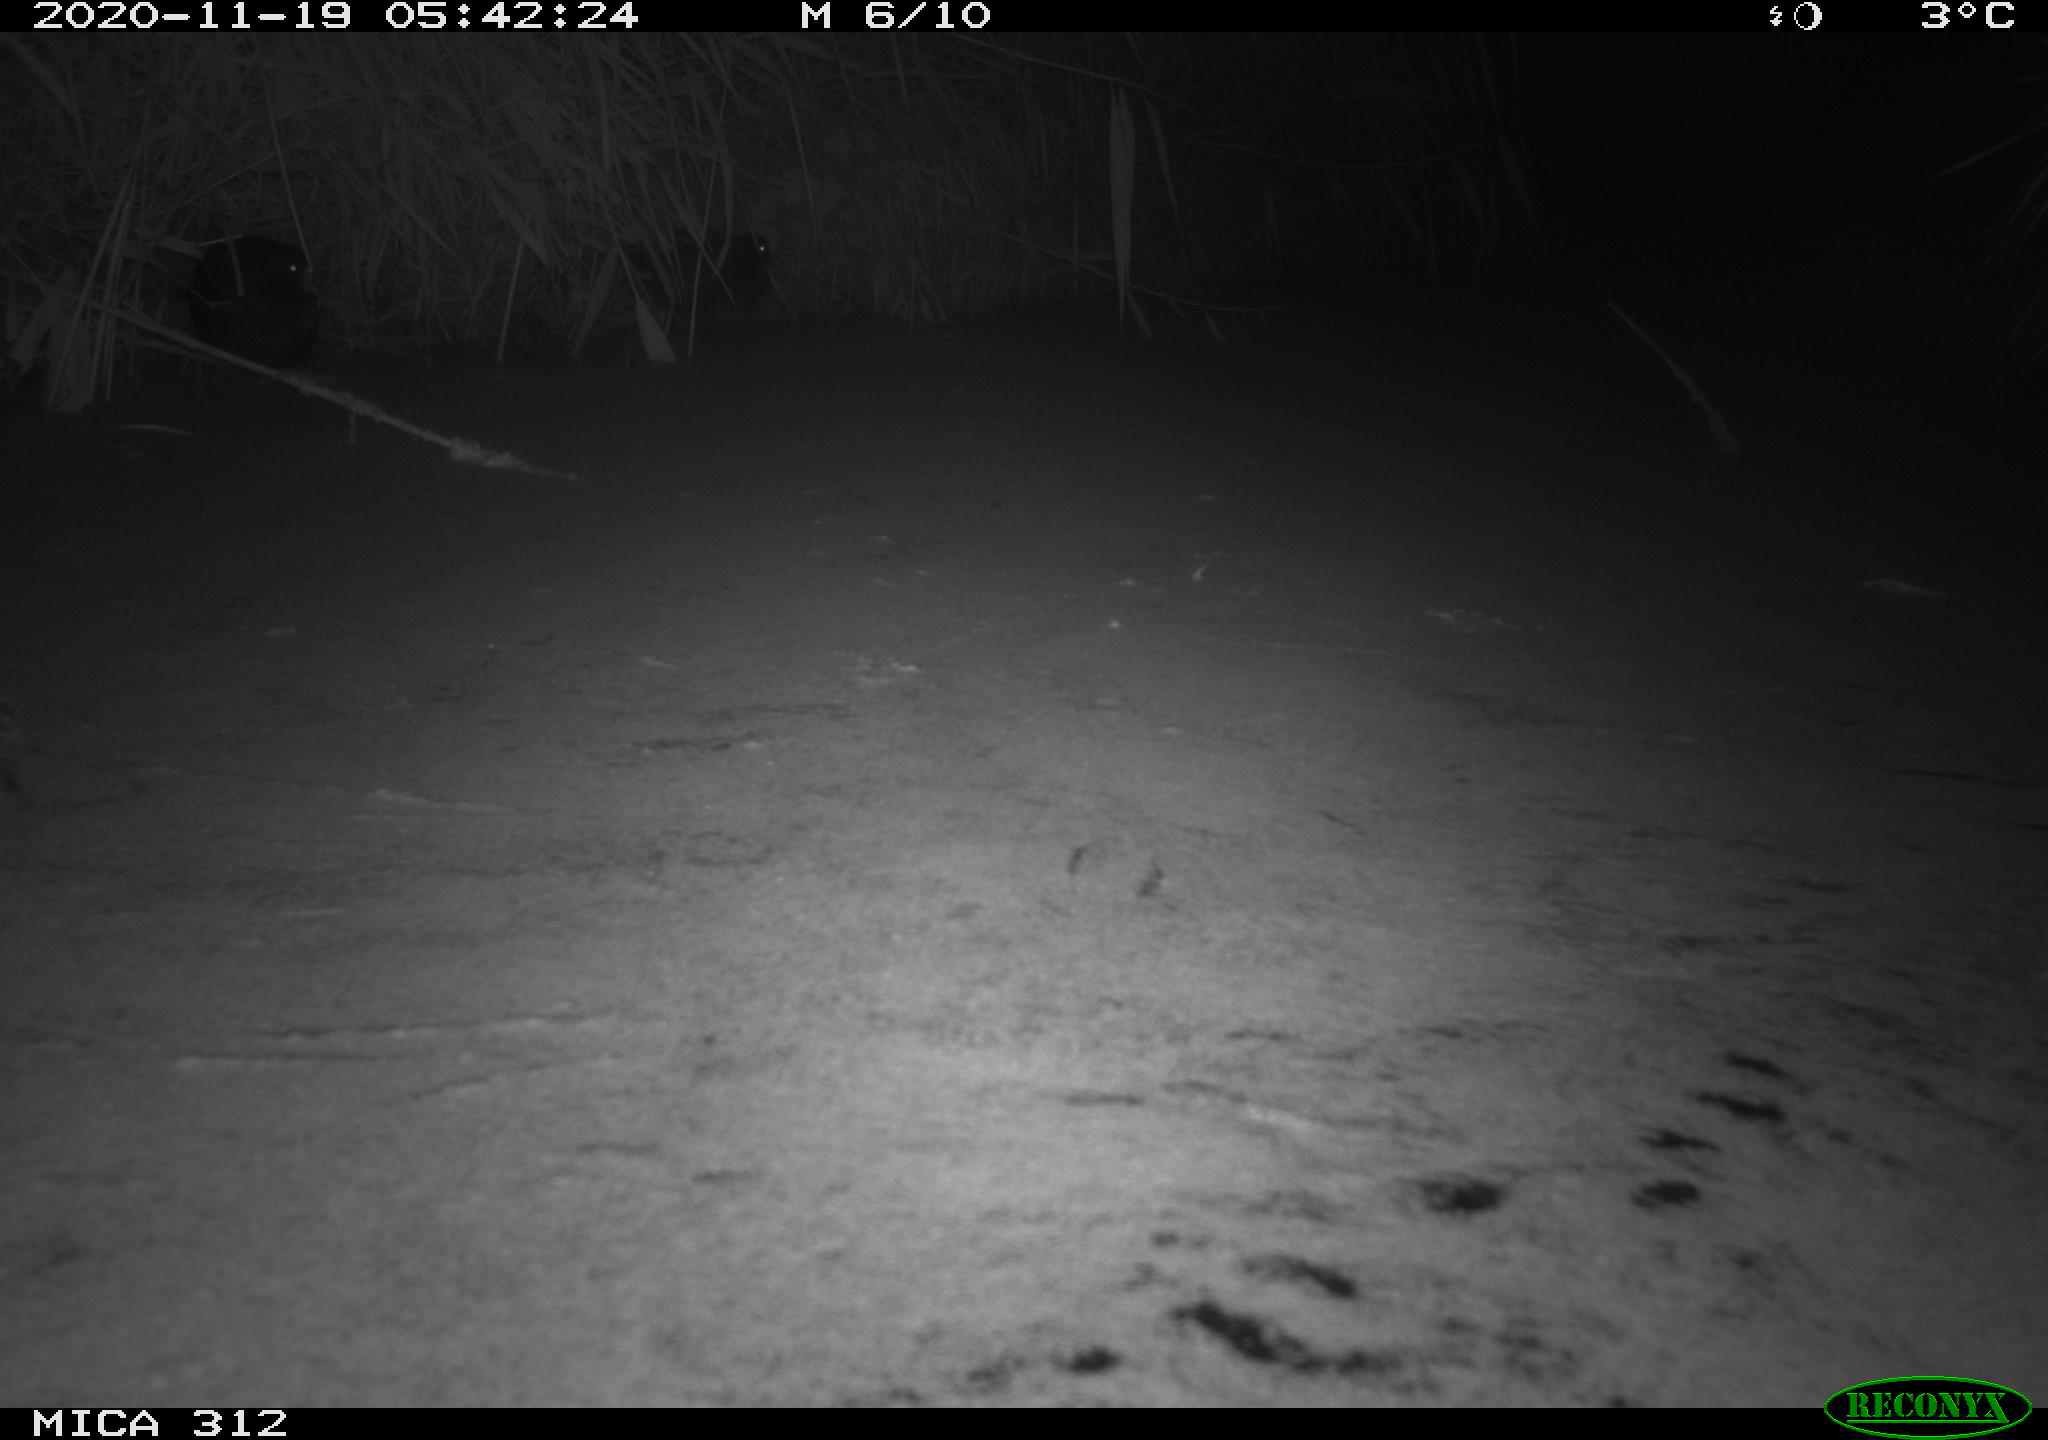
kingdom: Animalia
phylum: Chordata
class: Aves
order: Gruiformes
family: Rallidae
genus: Gallinula
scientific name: Gallinula chloropus
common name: Common moorhen
